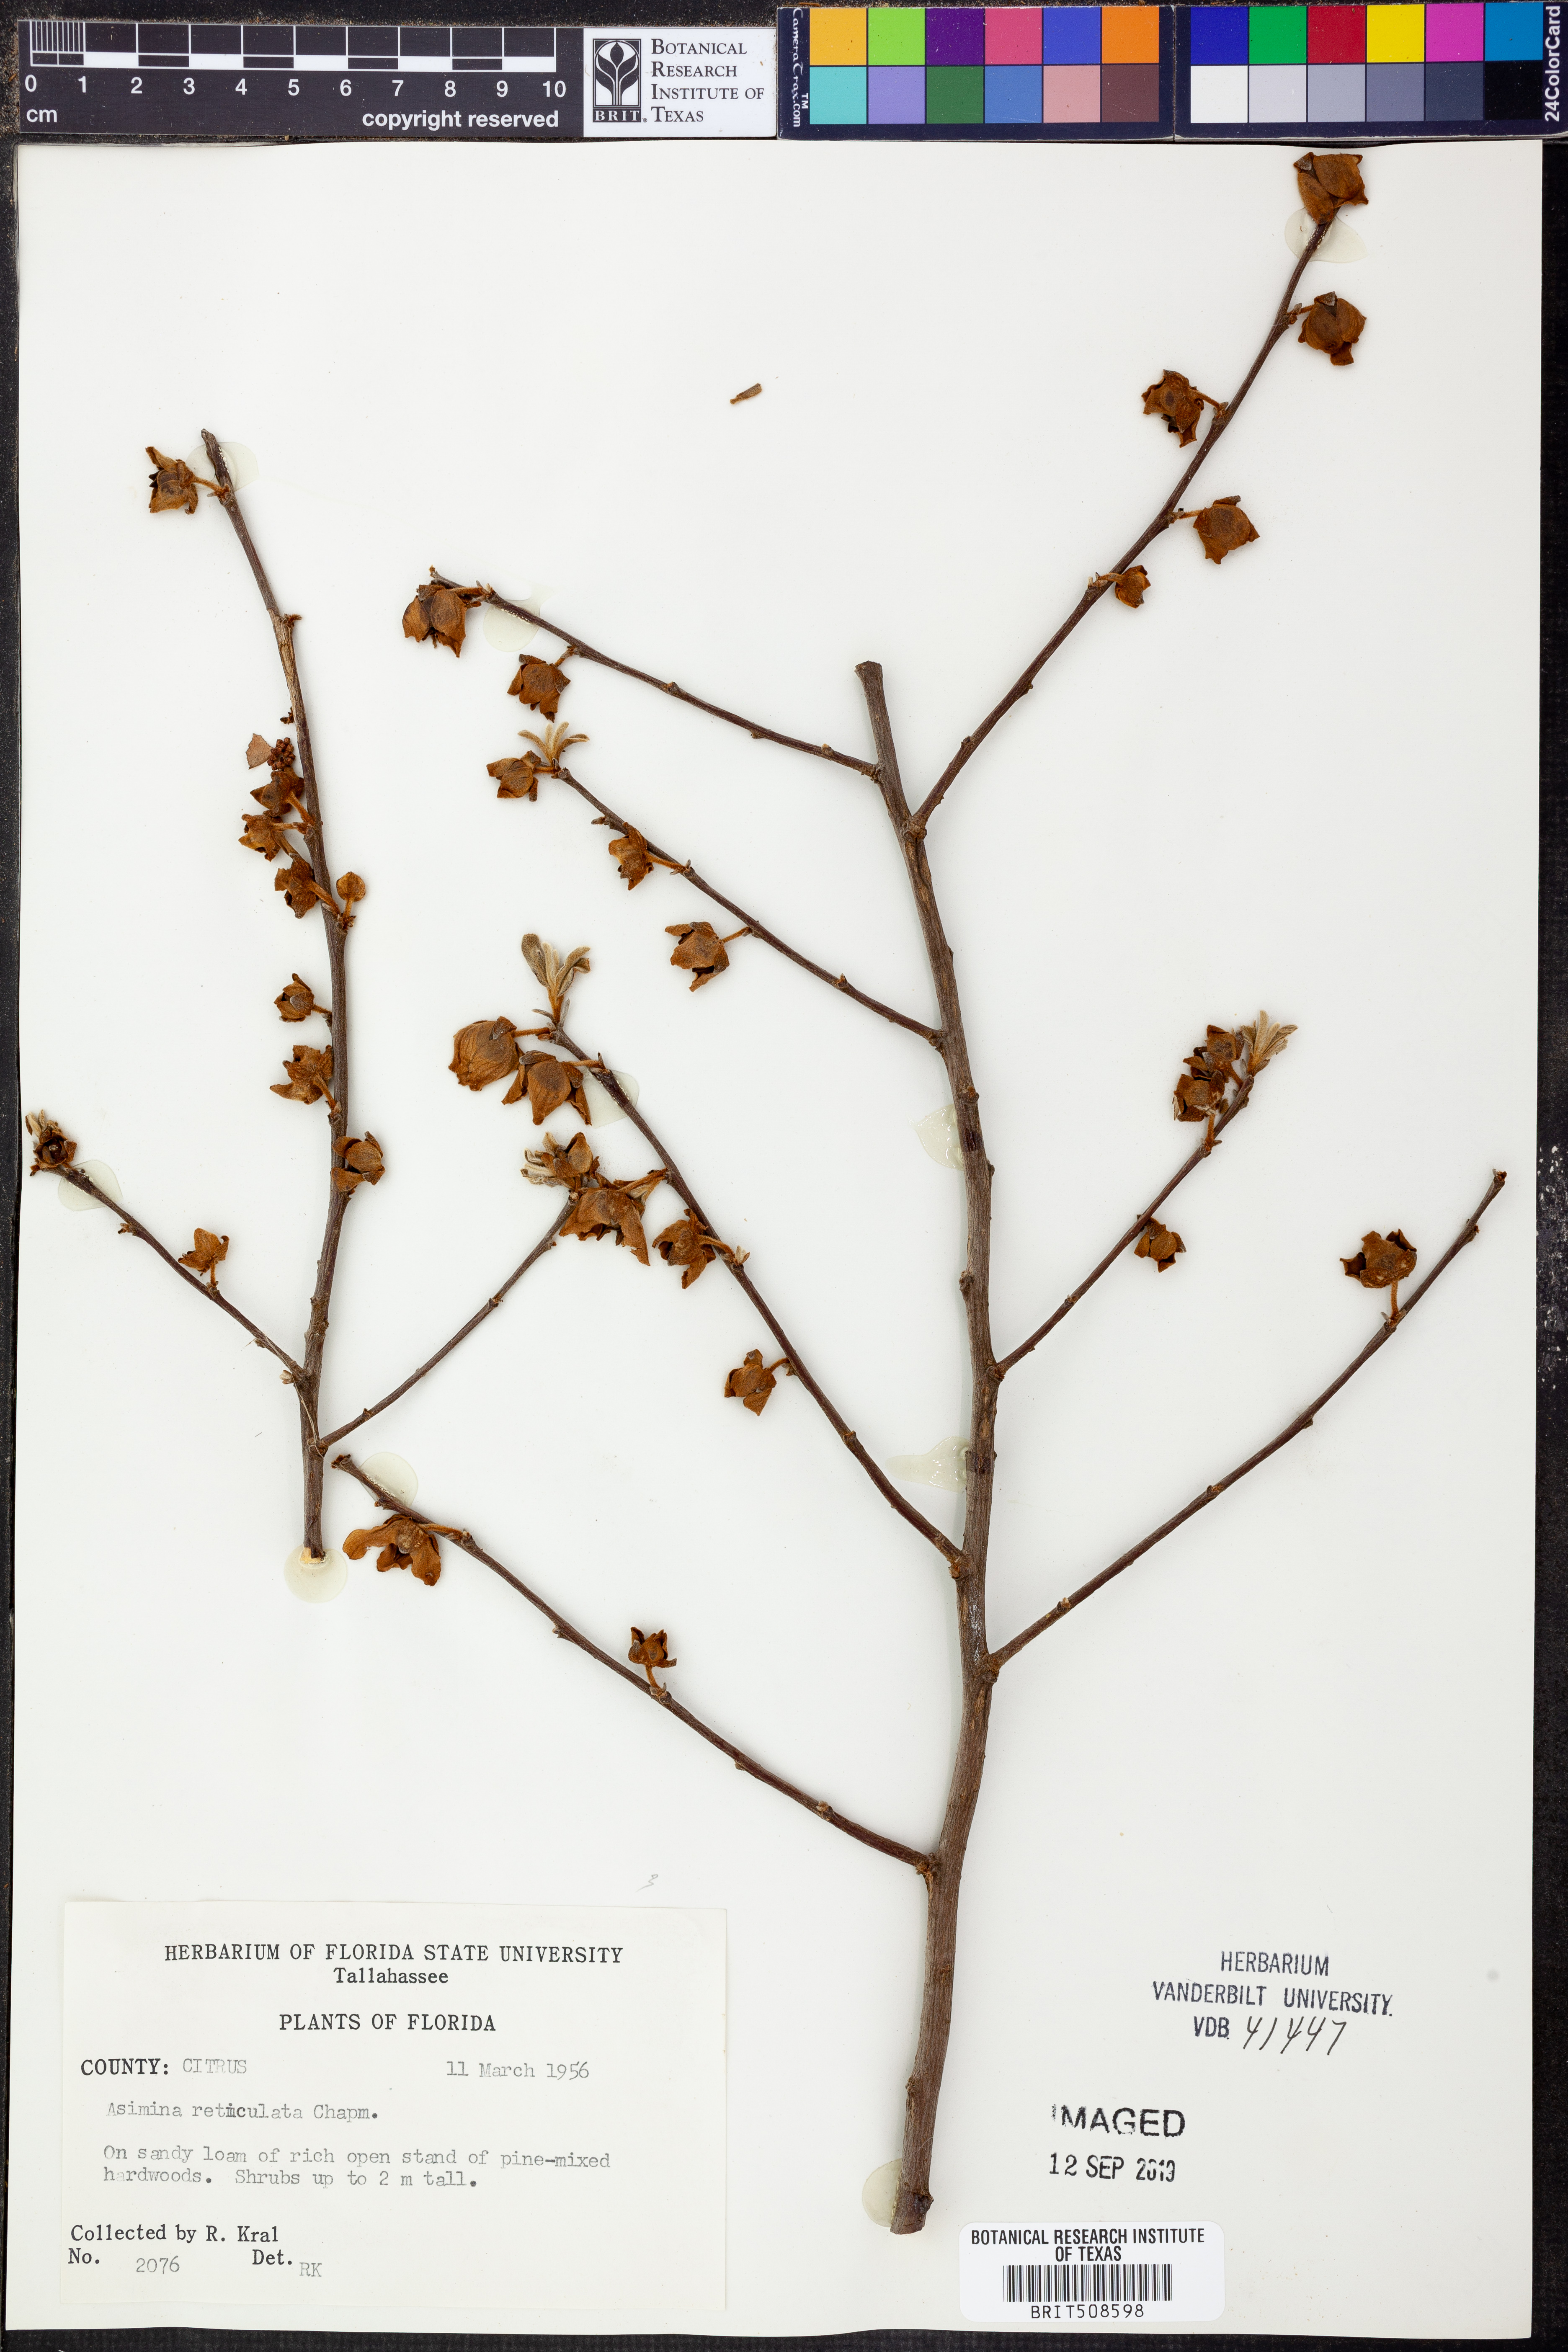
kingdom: Plantae
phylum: Tracheophyta
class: Magnoliopsida
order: Magnoliales
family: Annonaceae
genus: Asimina
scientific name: Asimina reticulata
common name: Flag pawpaw
